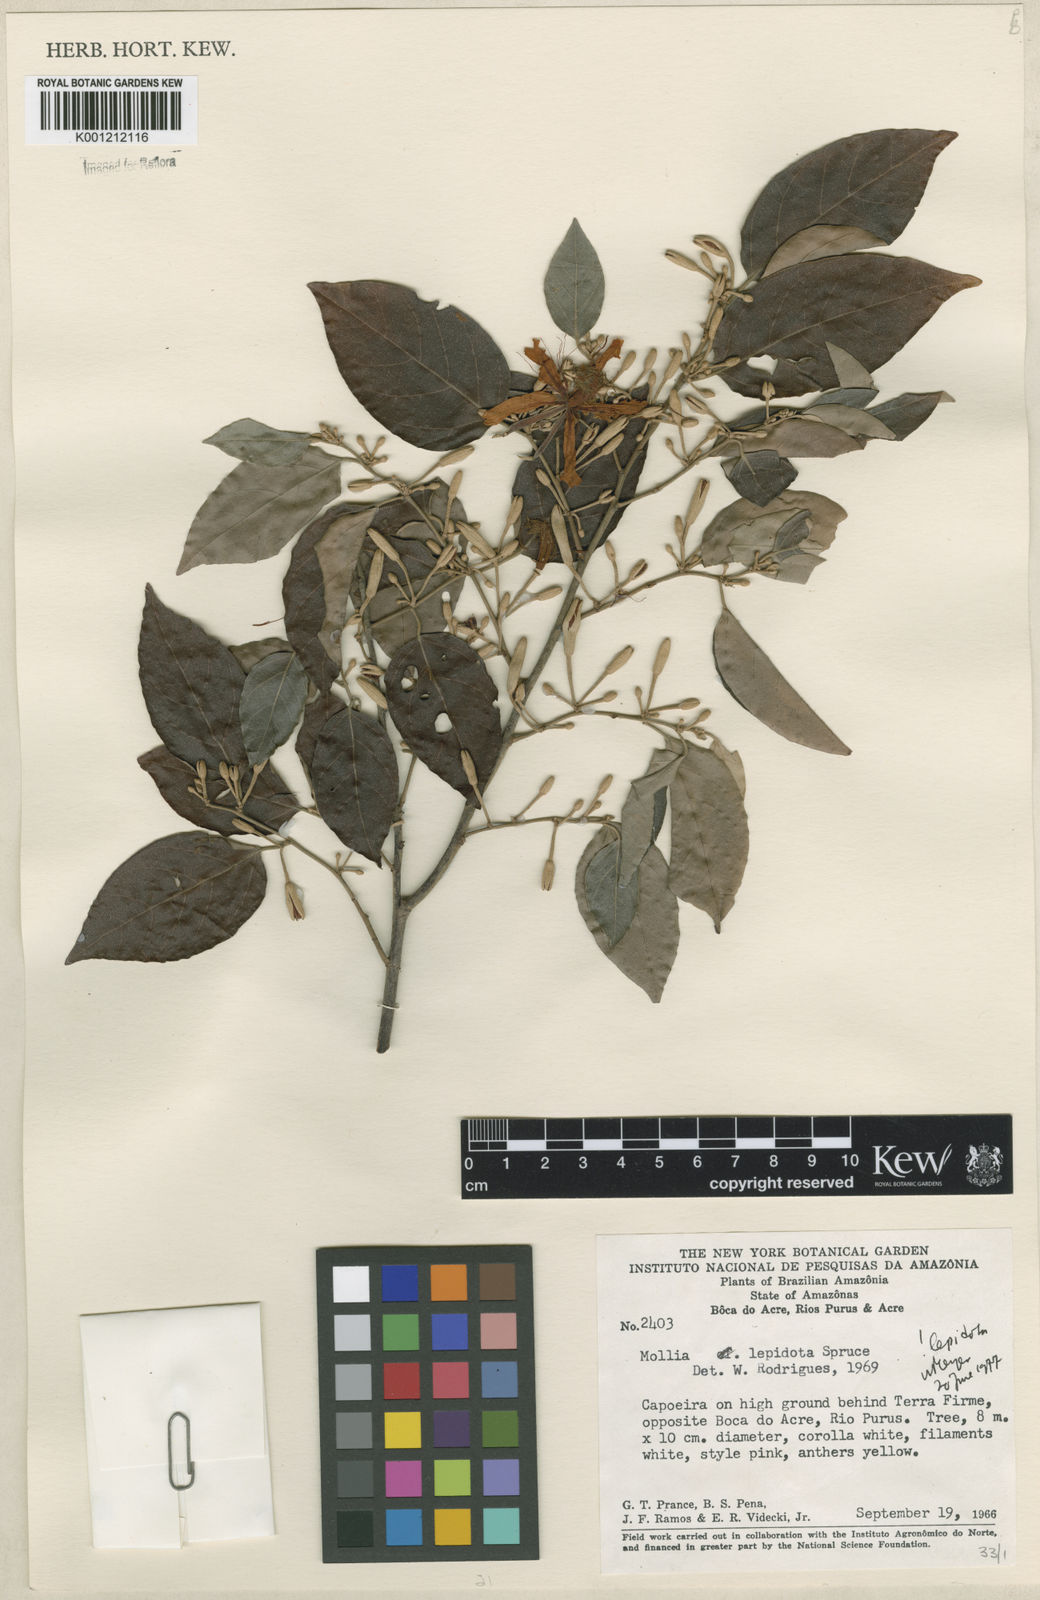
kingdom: Plantae
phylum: Tracheophyta
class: Magnoliopsida
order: Malvales
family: Malvaceae
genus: Mollia
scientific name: Mollia lepidota
